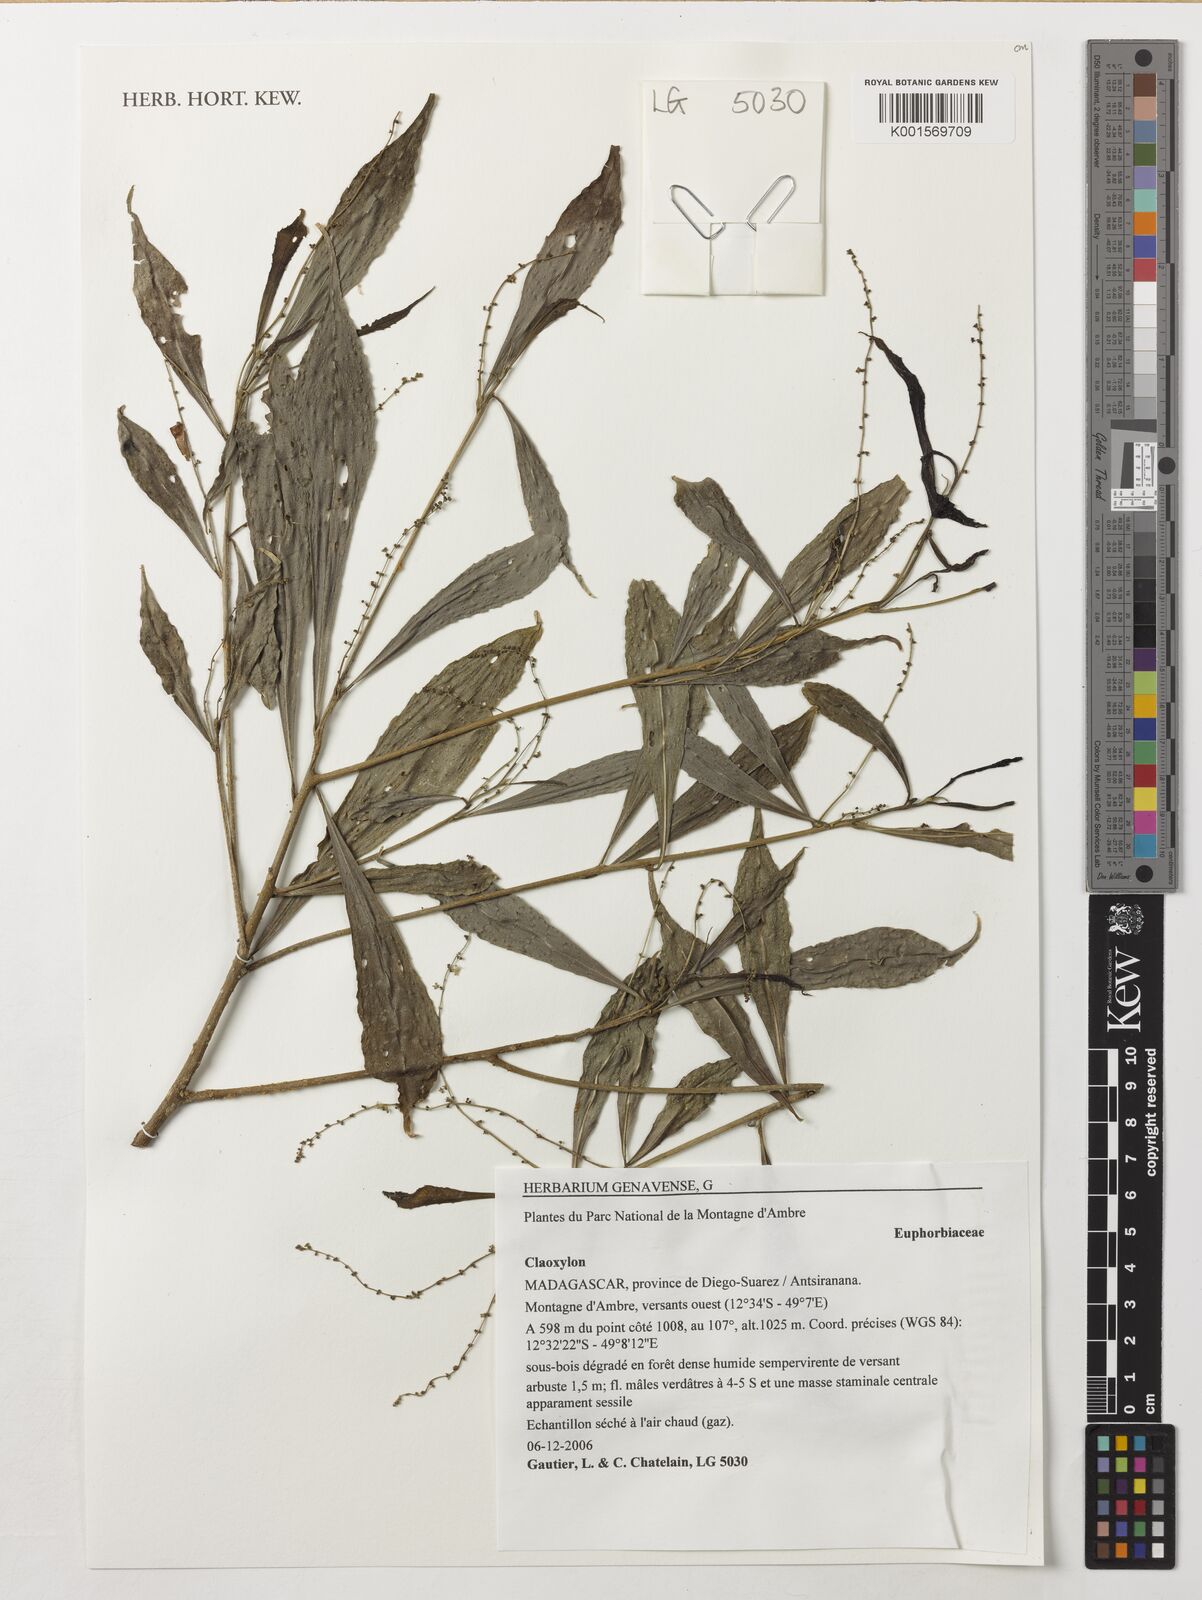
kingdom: Plantae
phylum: Tracheophyta
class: Magnoliopsida
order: Malpighiales
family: Euphorbiaceae
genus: Claoxylon
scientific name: Claoxylon
